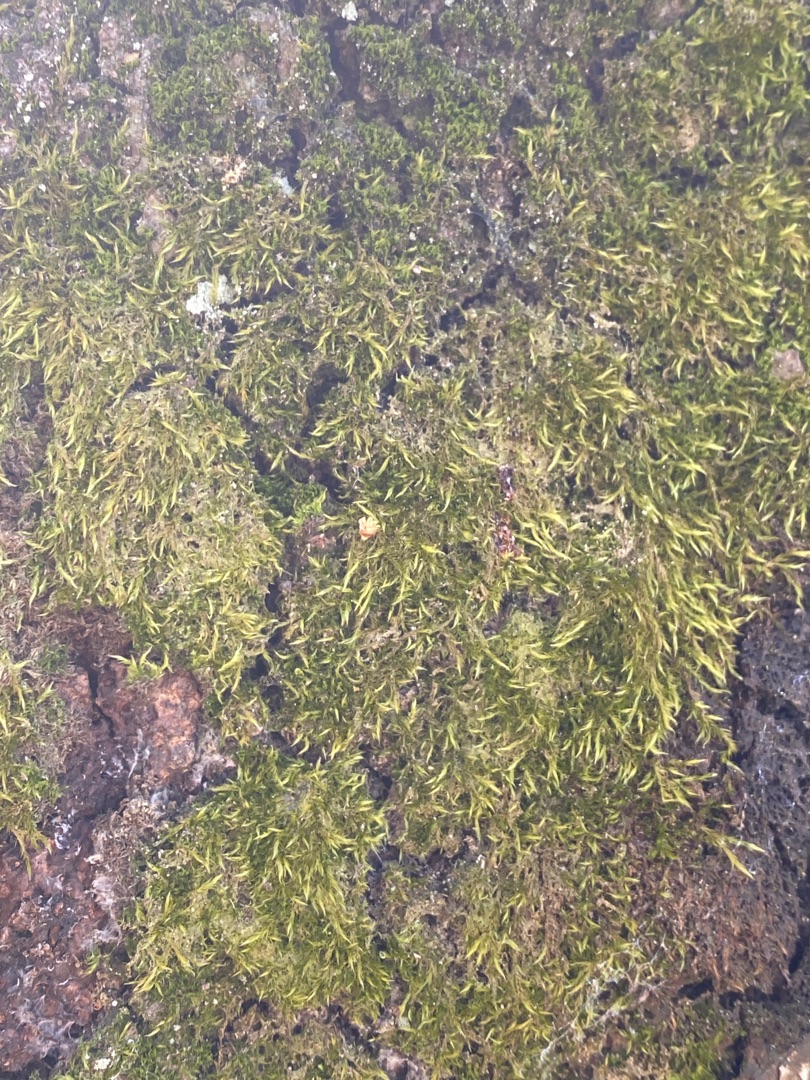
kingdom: Plantae
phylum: Bryophyta
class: Bryopsida
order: Hypnales
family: Hypnaceae
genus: Hypnum
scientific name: Hypnum
